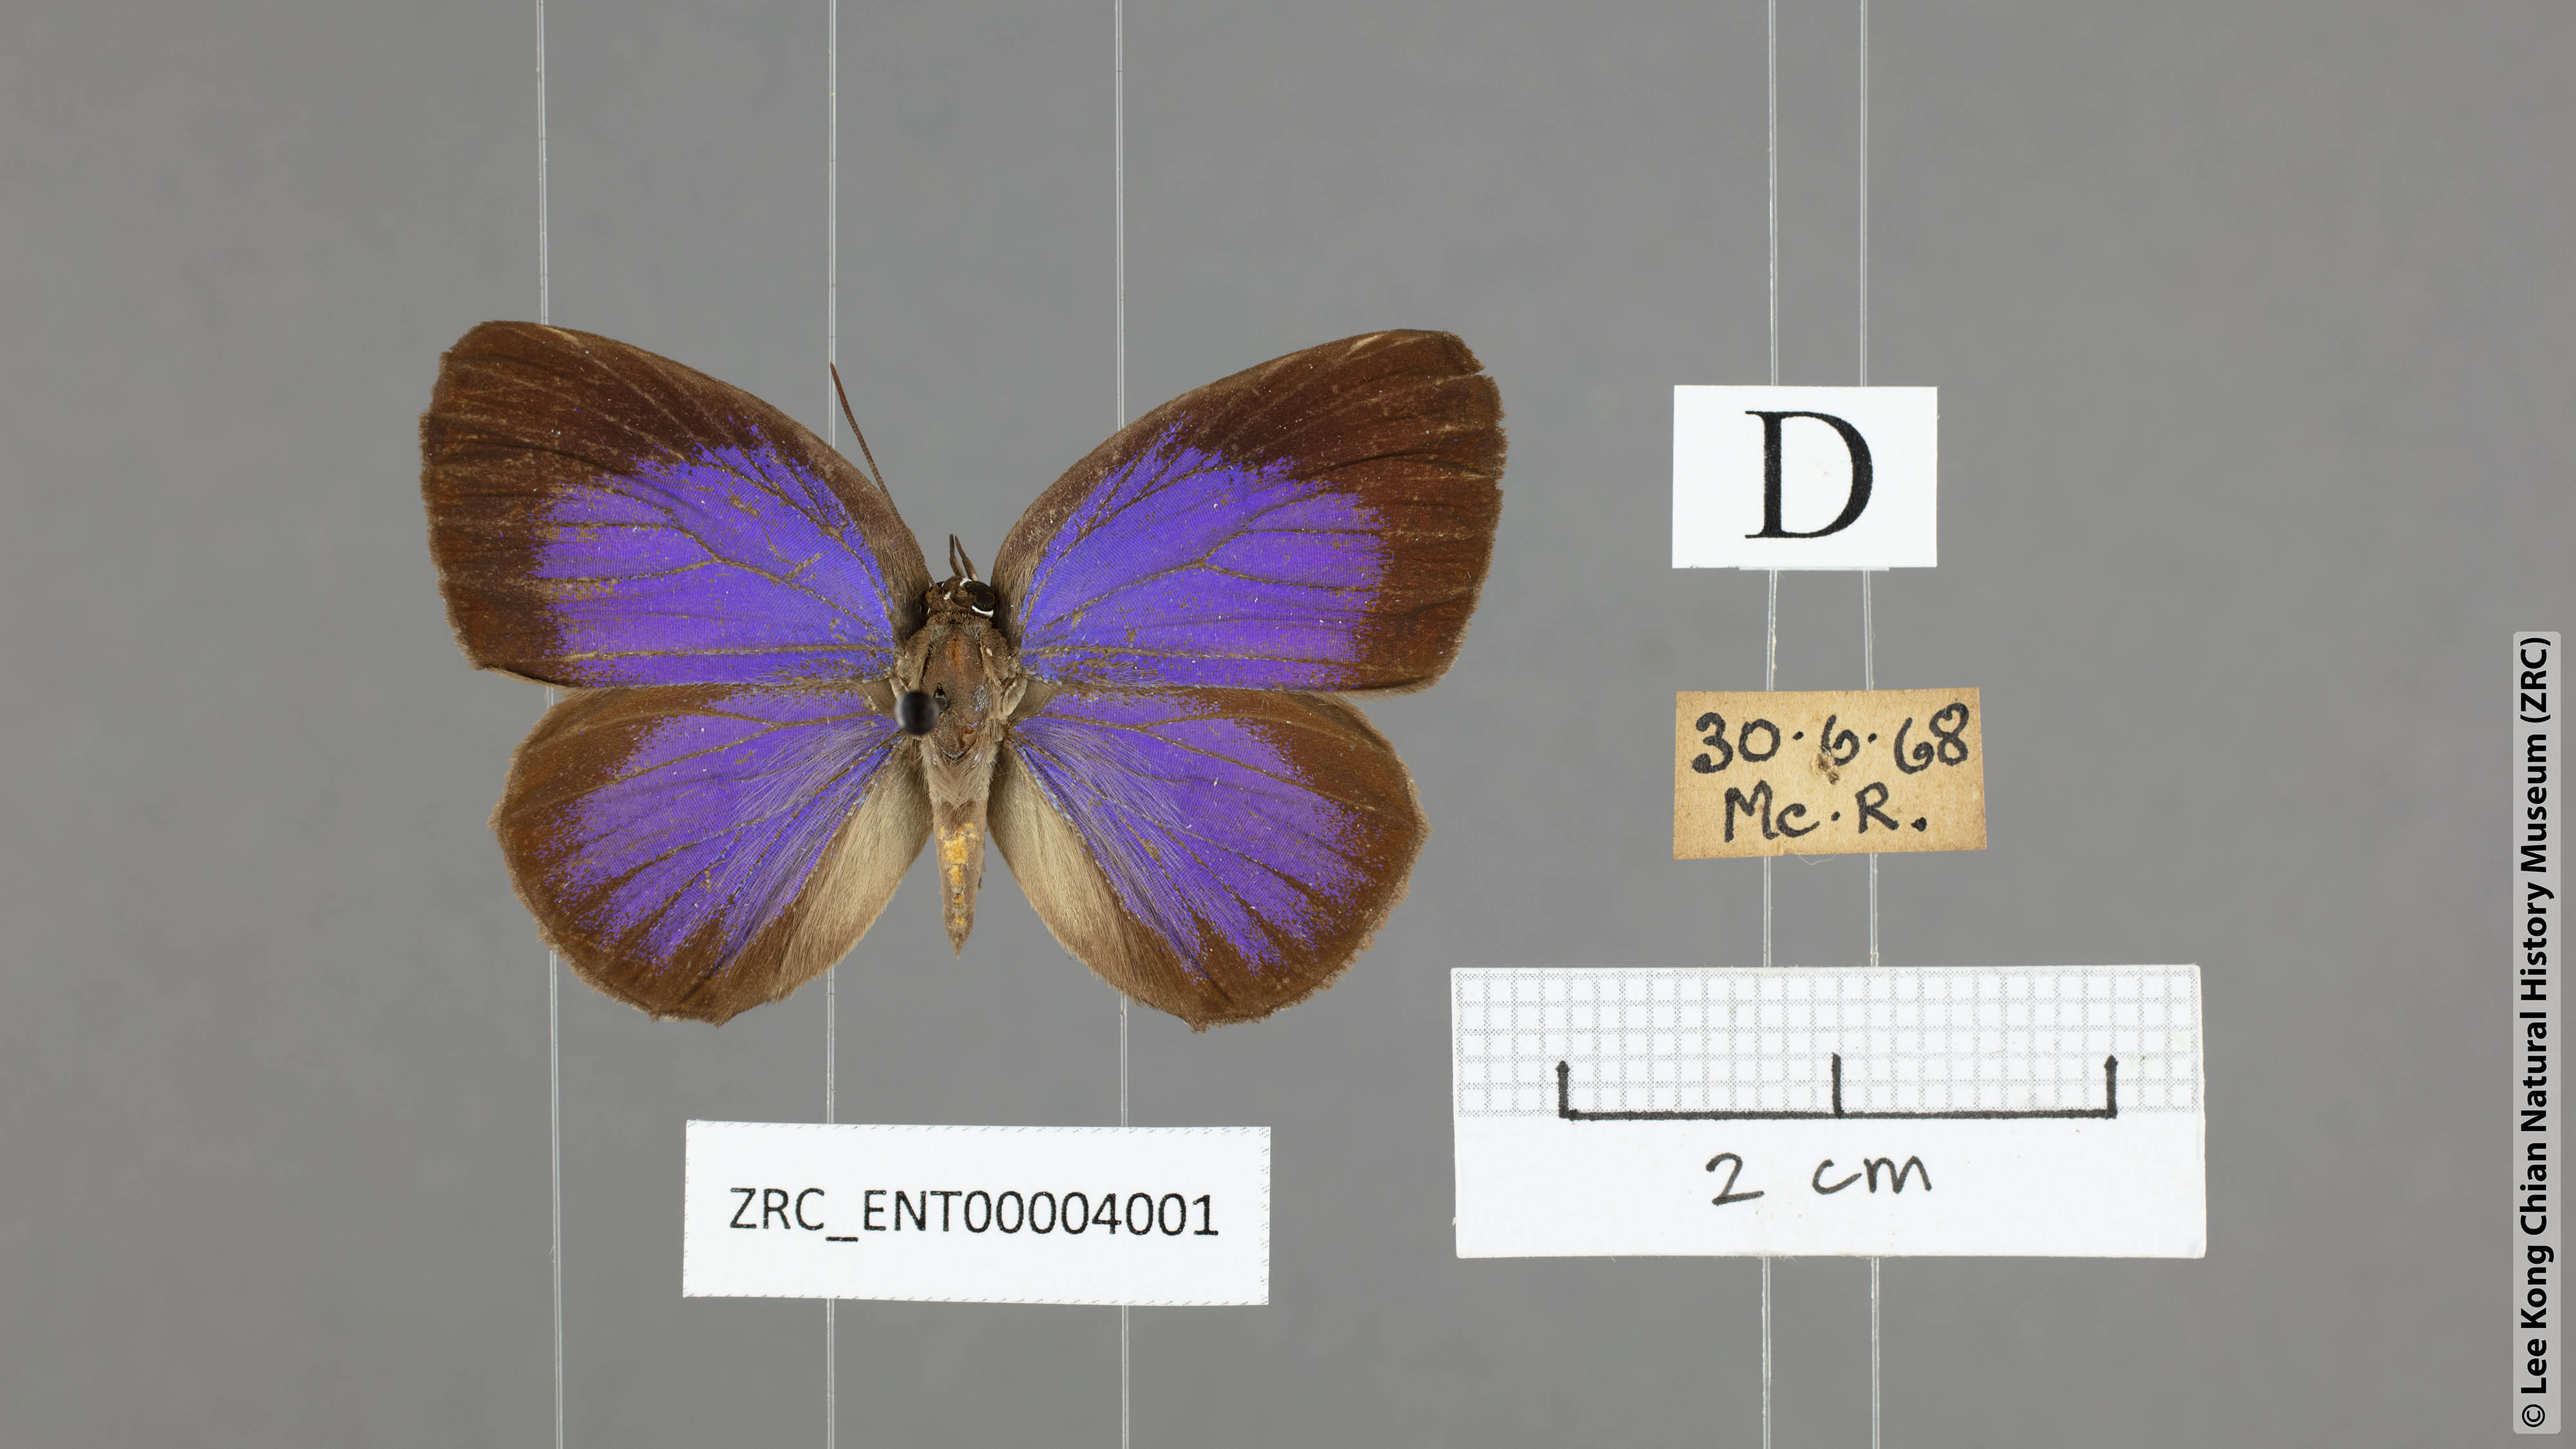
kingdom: Animalia
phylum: Arthropoda
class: Insecta
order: Lepidoptera
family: Lycaenidae
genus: Arhopala
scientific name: Arhopala moorei
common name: Moore's oakblue
